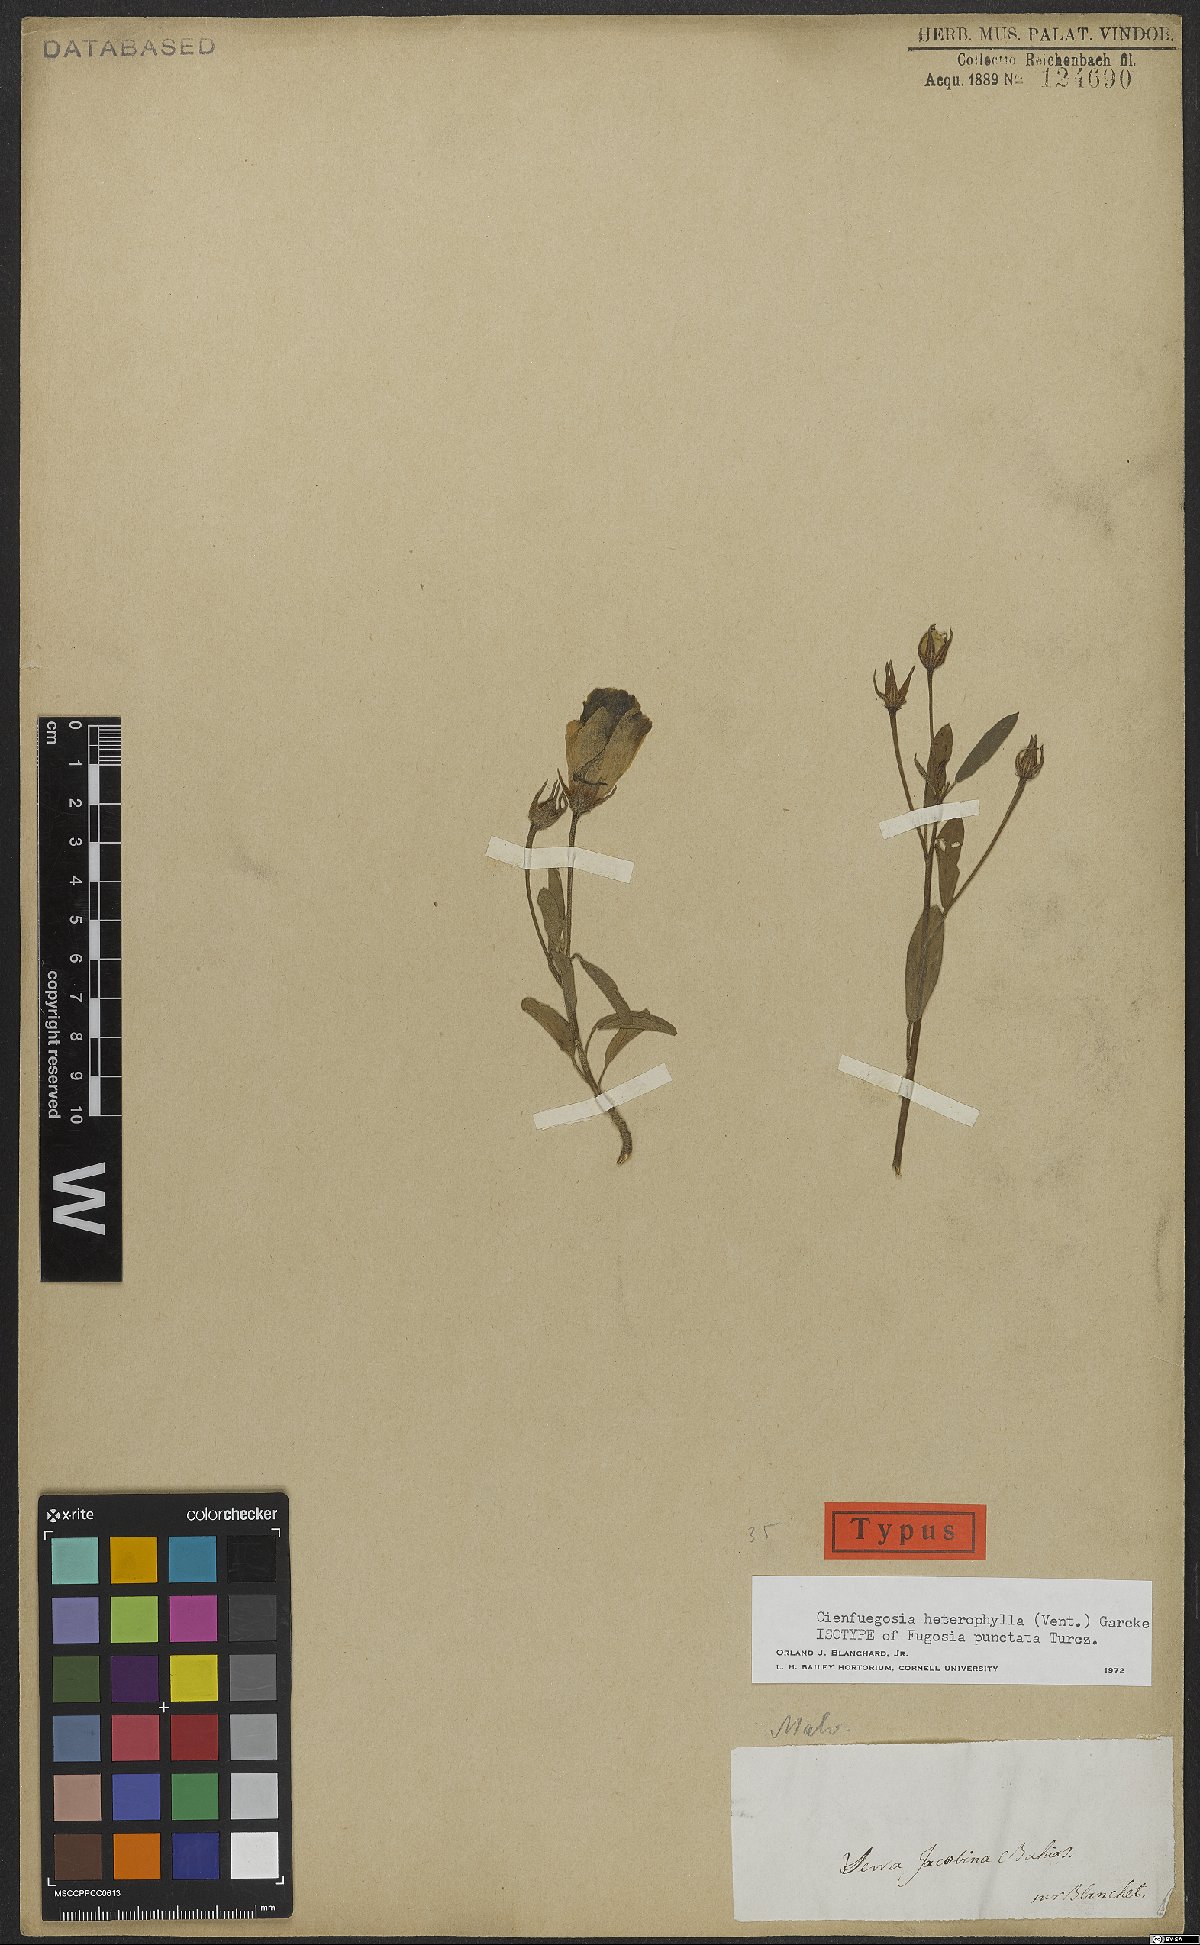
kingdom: Plantae
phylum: Tracheophyta
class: Magnoliopsida
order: Malvales
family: Malvaceae
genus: Cienfuegosia
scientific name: Cienfuegosia heterophylla
